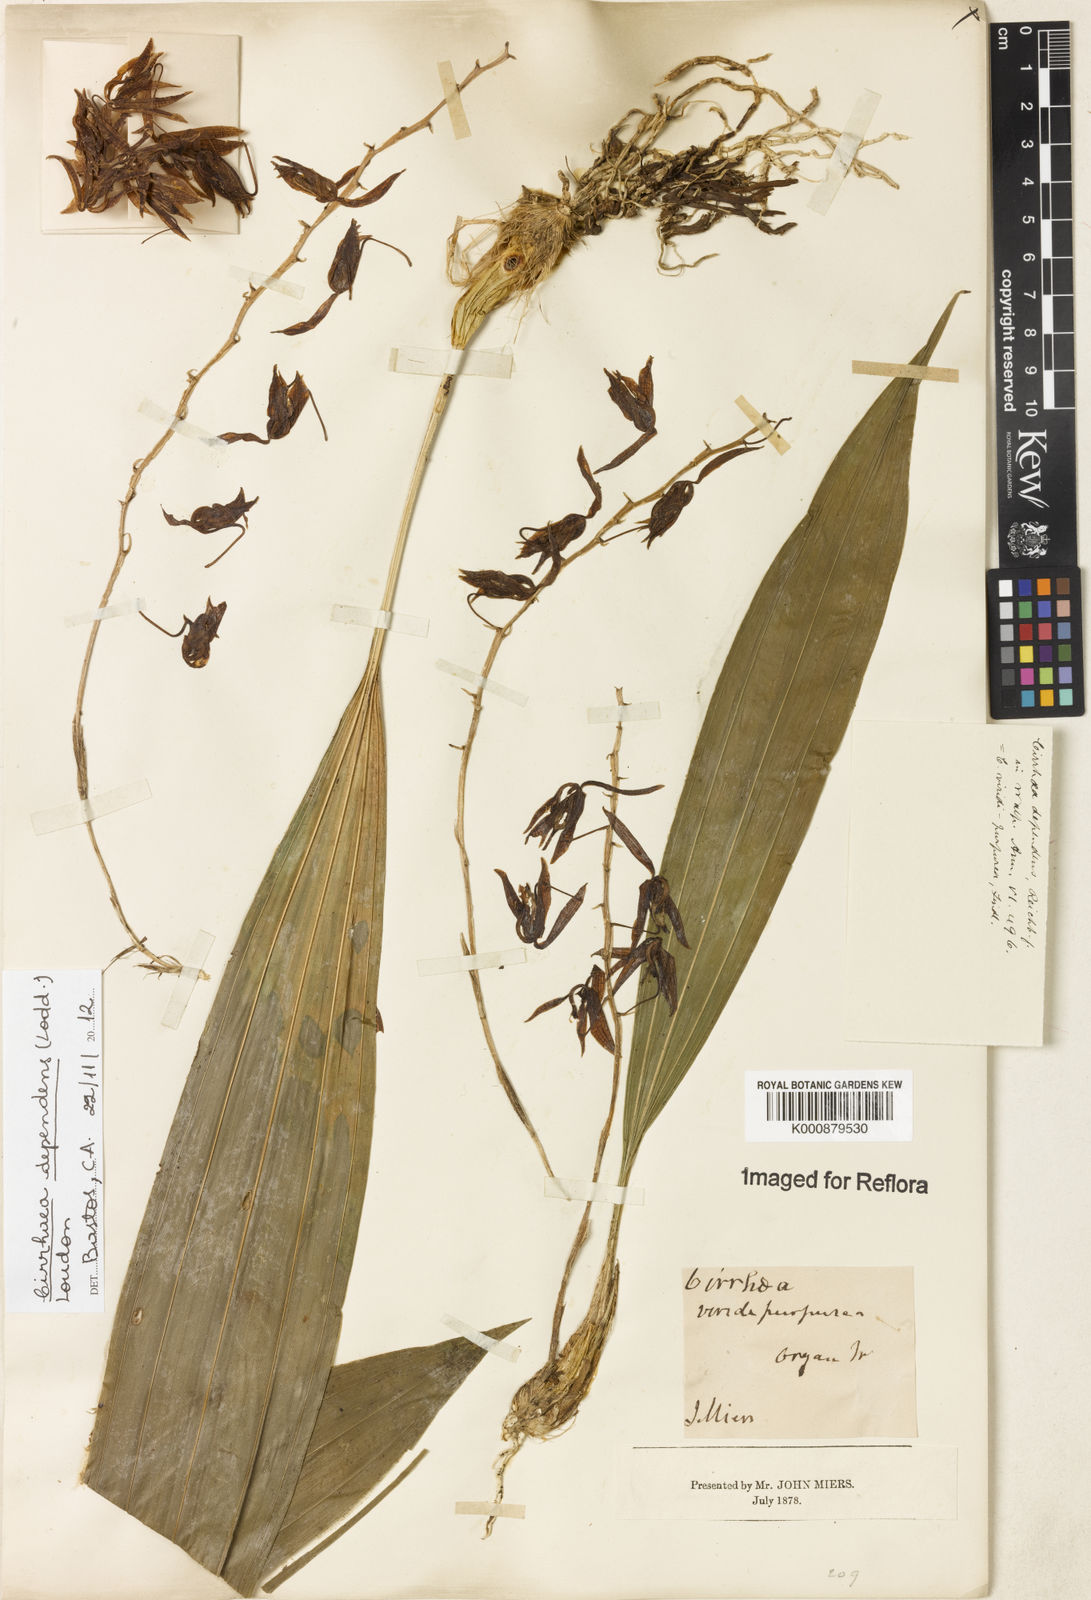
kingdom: Plantae
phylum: Tracheophyta
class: Liliopsida
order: Asparagales
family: Orchidaceae
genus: Cirrhaea
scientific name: Cirrhaea
